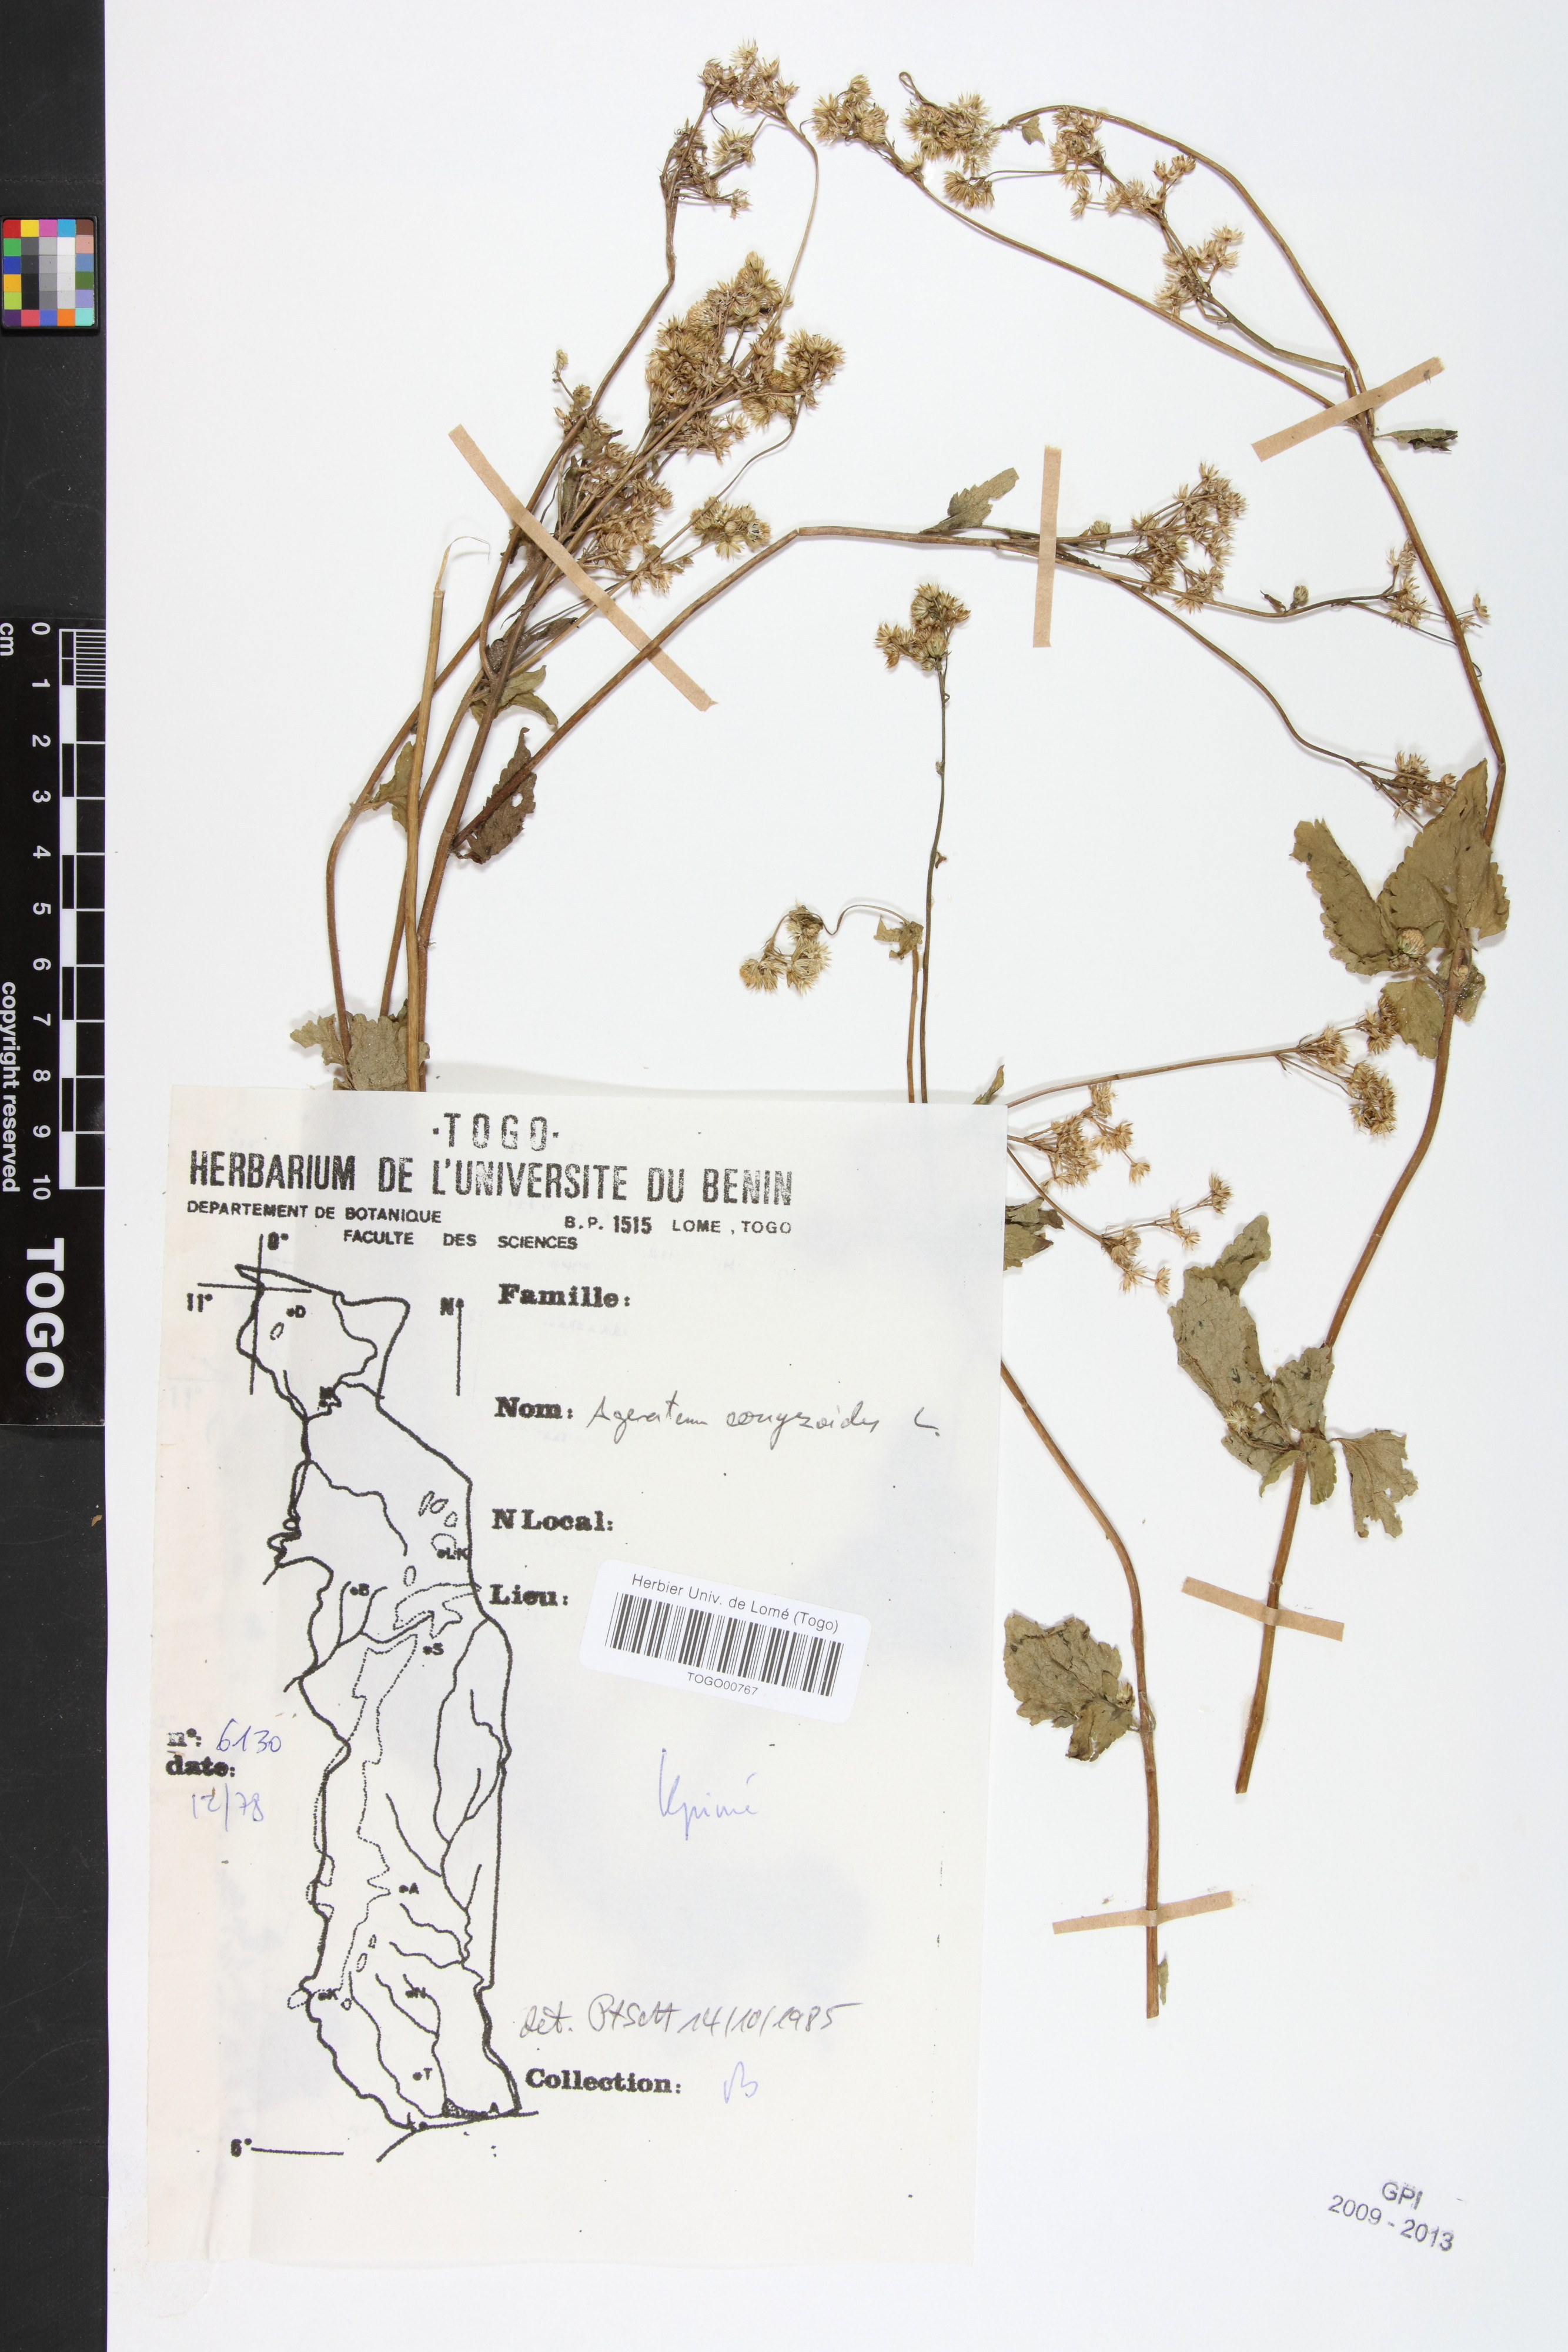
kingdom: Plantae
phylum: Tracheophyta
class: Magnoliopsida
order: Asterales
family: Asteraceae
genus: Ageratum
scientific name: Ageratum conyzoides
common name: Tropical whiteweed
